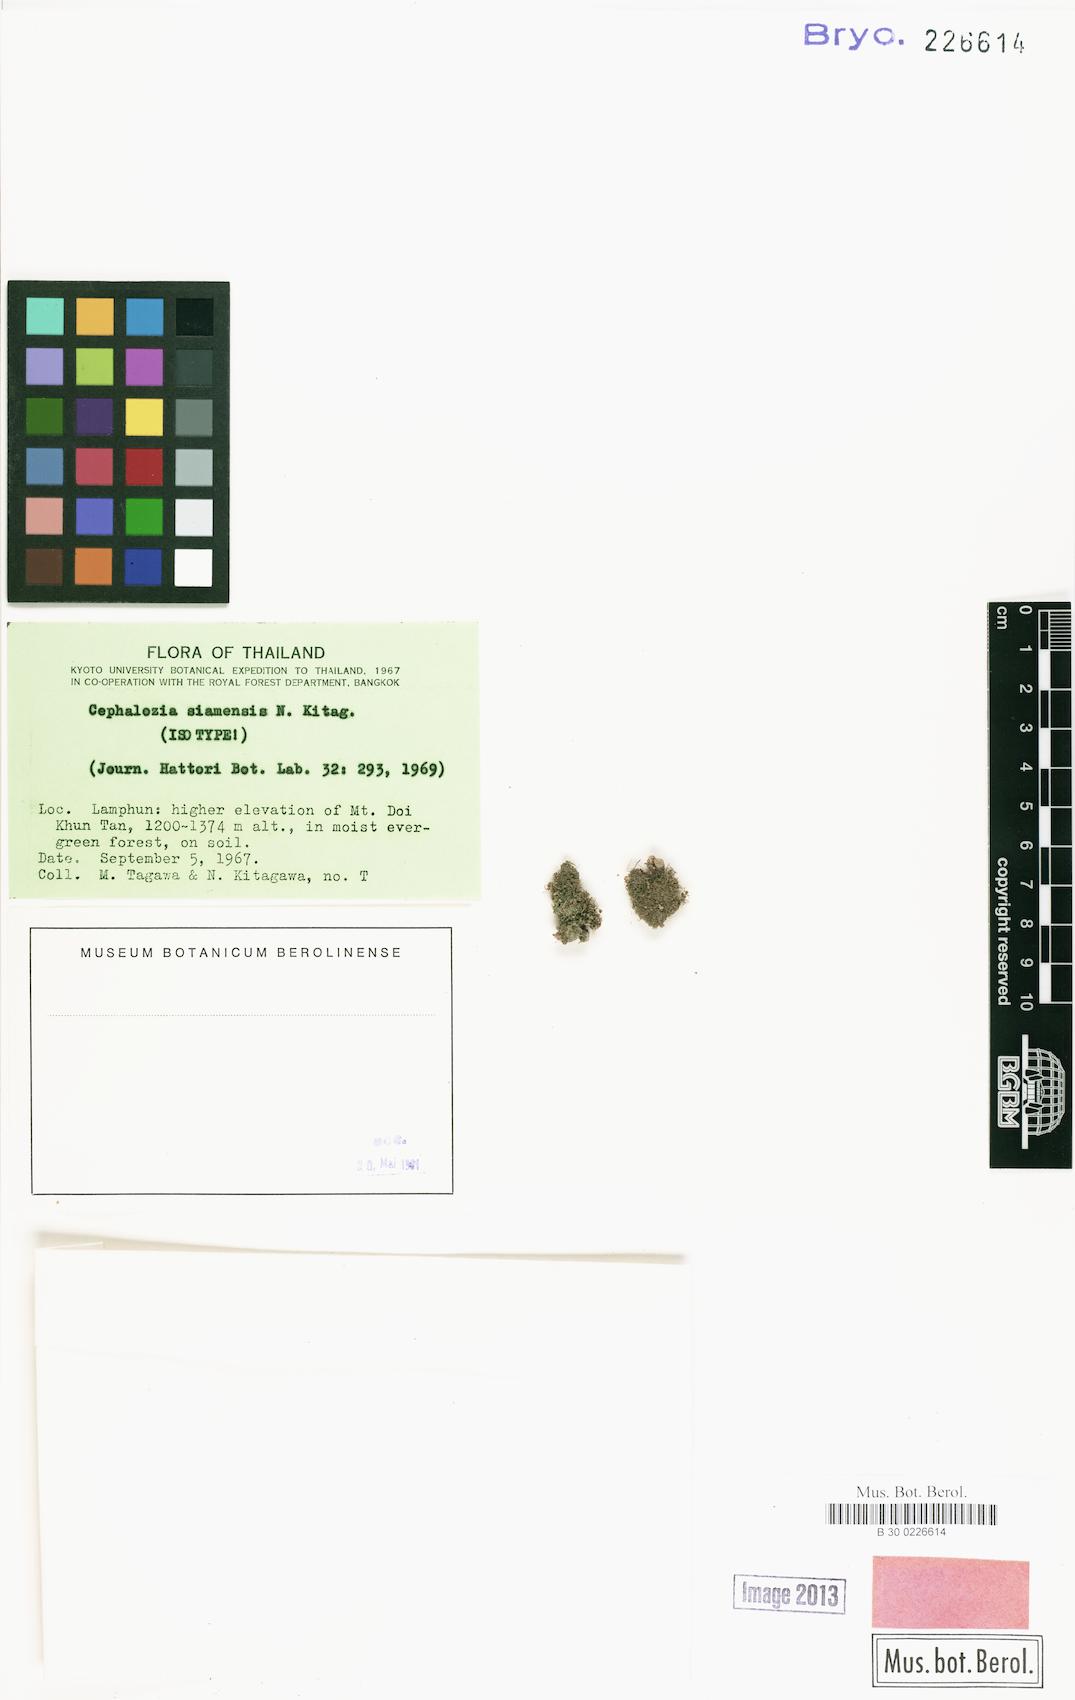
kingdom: Plantae
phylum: Marchantiophyta
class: Jungermanniopsida
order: Jungermanniales
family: Cephaloziaceae
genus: Cephalozia
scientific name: Cephalozia hamatiloba
